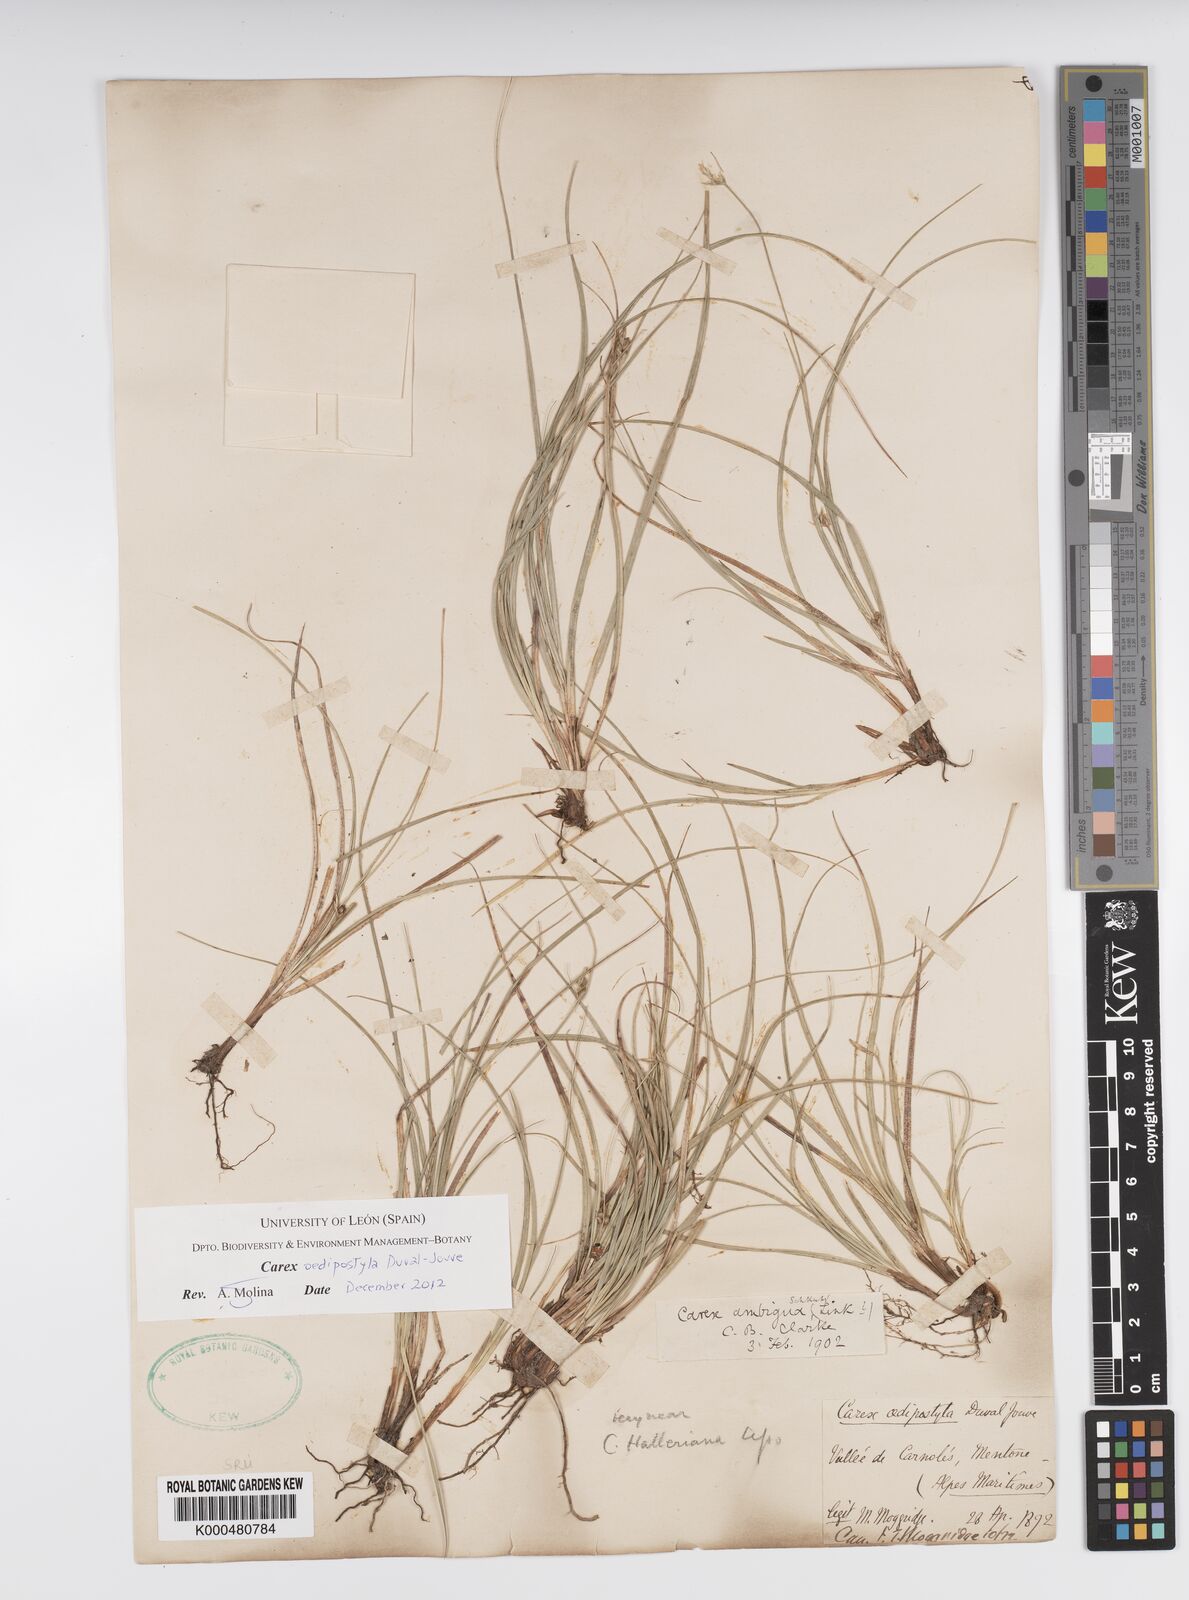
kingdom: Plantae
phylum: Tracheophyta
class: Liliopsida
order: Poales
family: Cyperaceae
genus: Carex
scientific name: Carex
